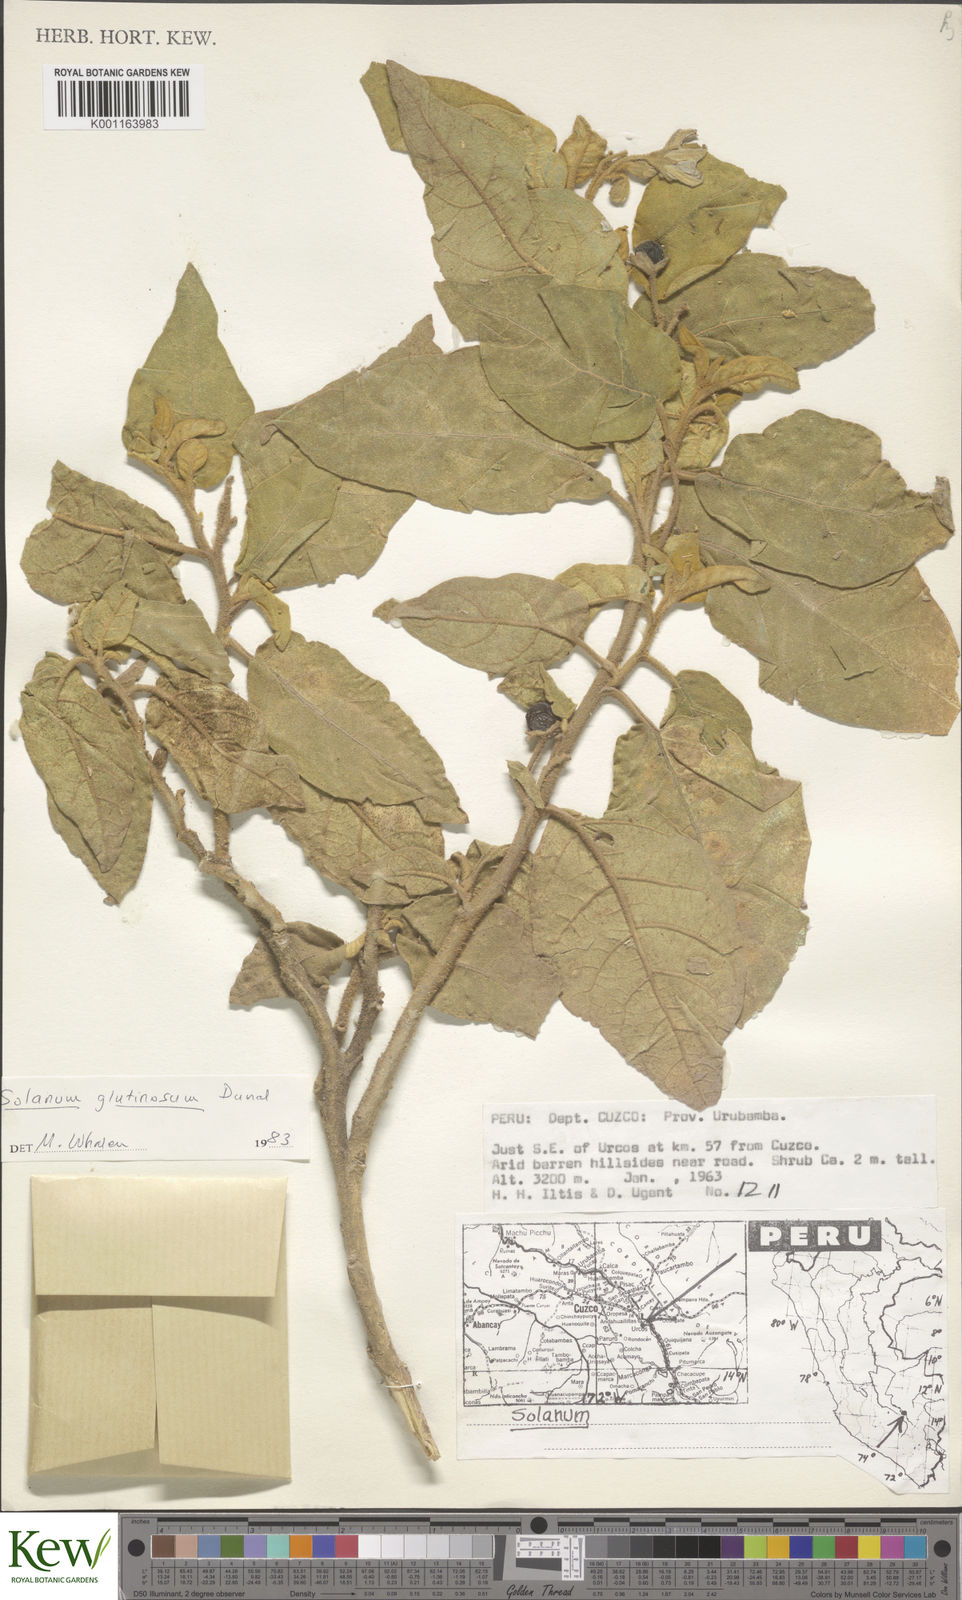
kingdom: Plantae
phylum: Tracheophyta
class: Magnoliopsida
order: Solanales
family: Solanaceae
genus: Solanum
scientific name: Solanum glutinosum
